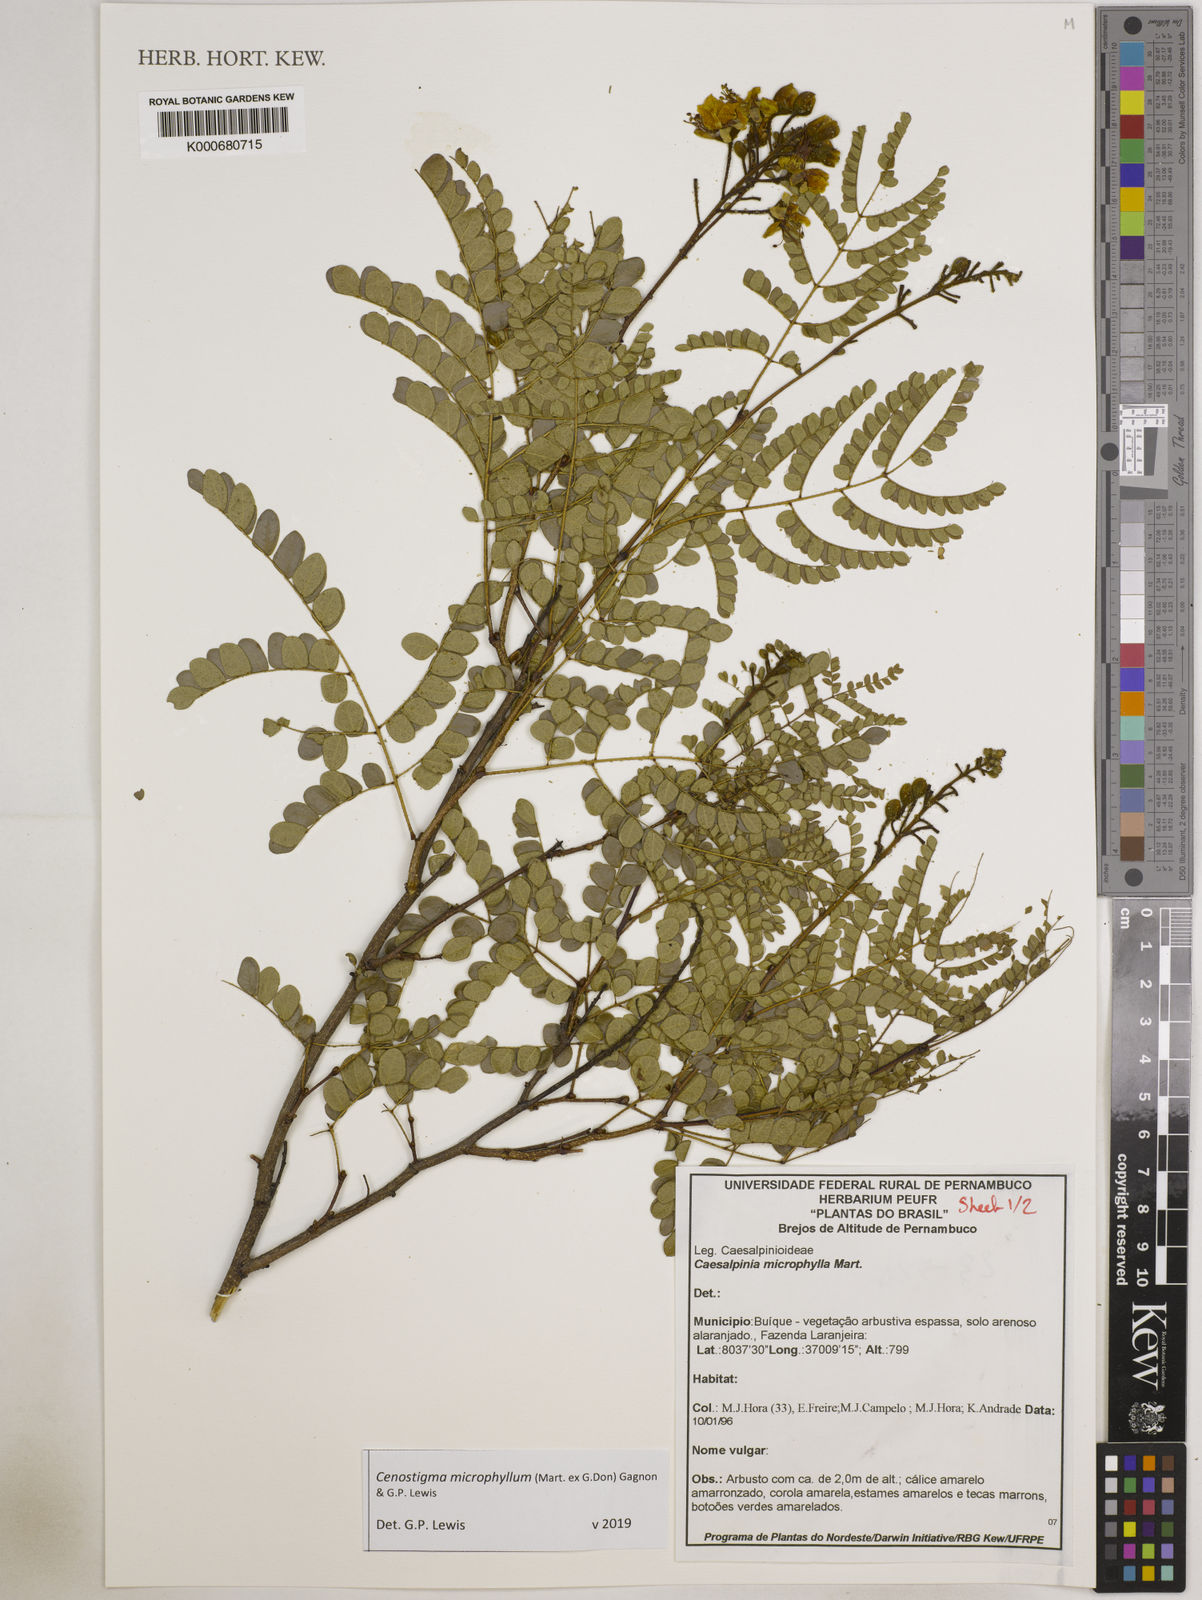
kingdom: Plantae
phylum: Tracheophyta
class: Magnoliopsida
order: Fabales
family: Fabaceae
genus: Cenostigma
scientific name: Cenostigma microphyllum
